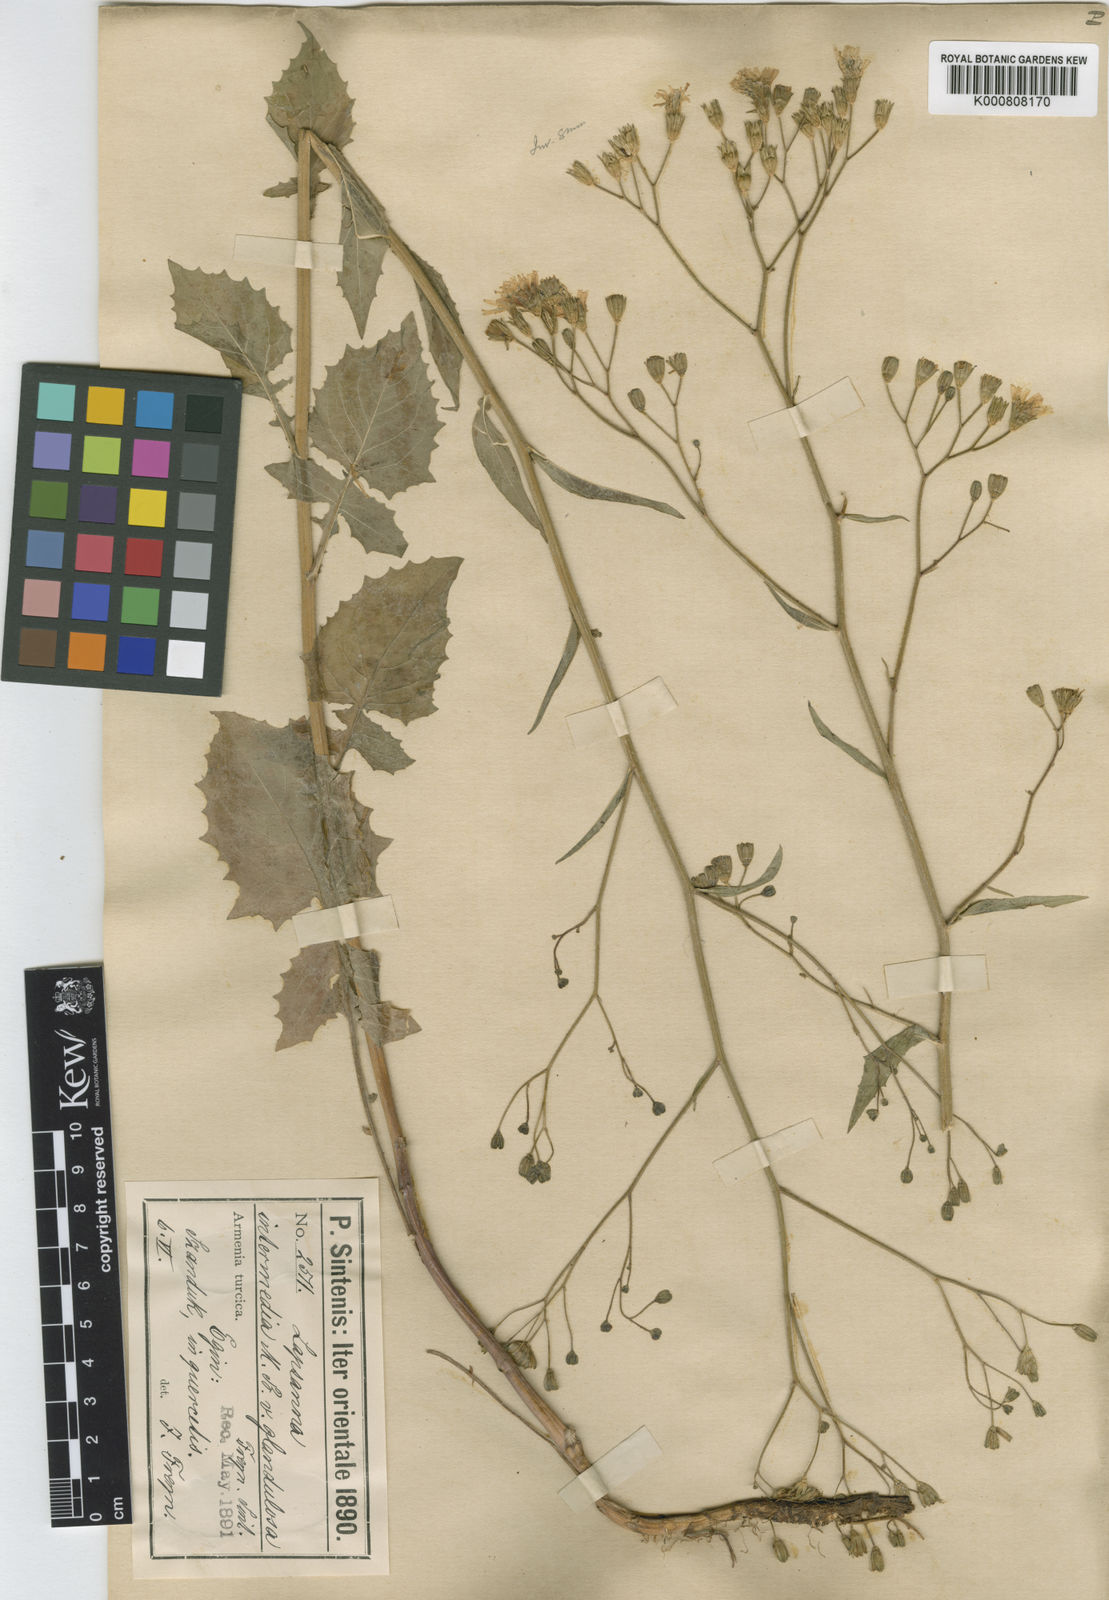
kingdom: Plantae
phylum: Tracheophyta
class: Magnoliopsida
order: Asterales
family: Asteraceae
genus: Lapsana
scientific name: Lapsana communis
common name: Nipplewort
